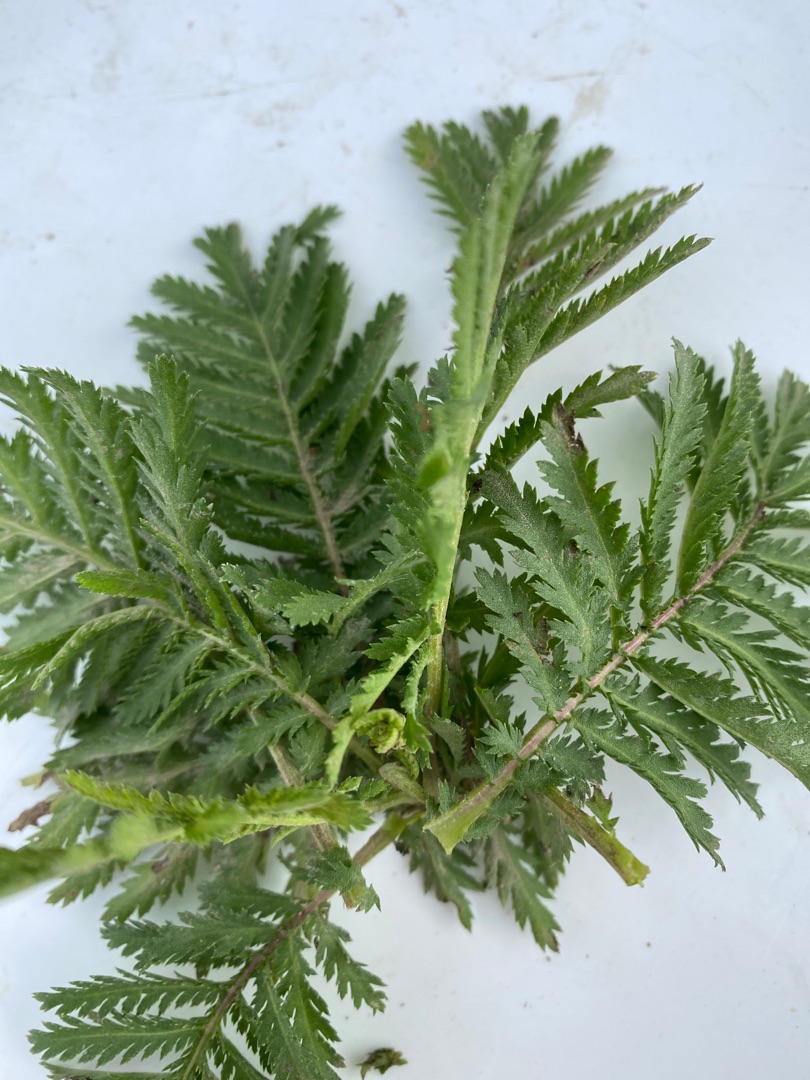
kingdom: Plantae
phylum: Tracheophyta
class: Magnoliopsida
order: Asterales
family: Asteraceae
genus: Tanacetum
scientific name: Tanacetum vulgare
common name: Rejnfan
